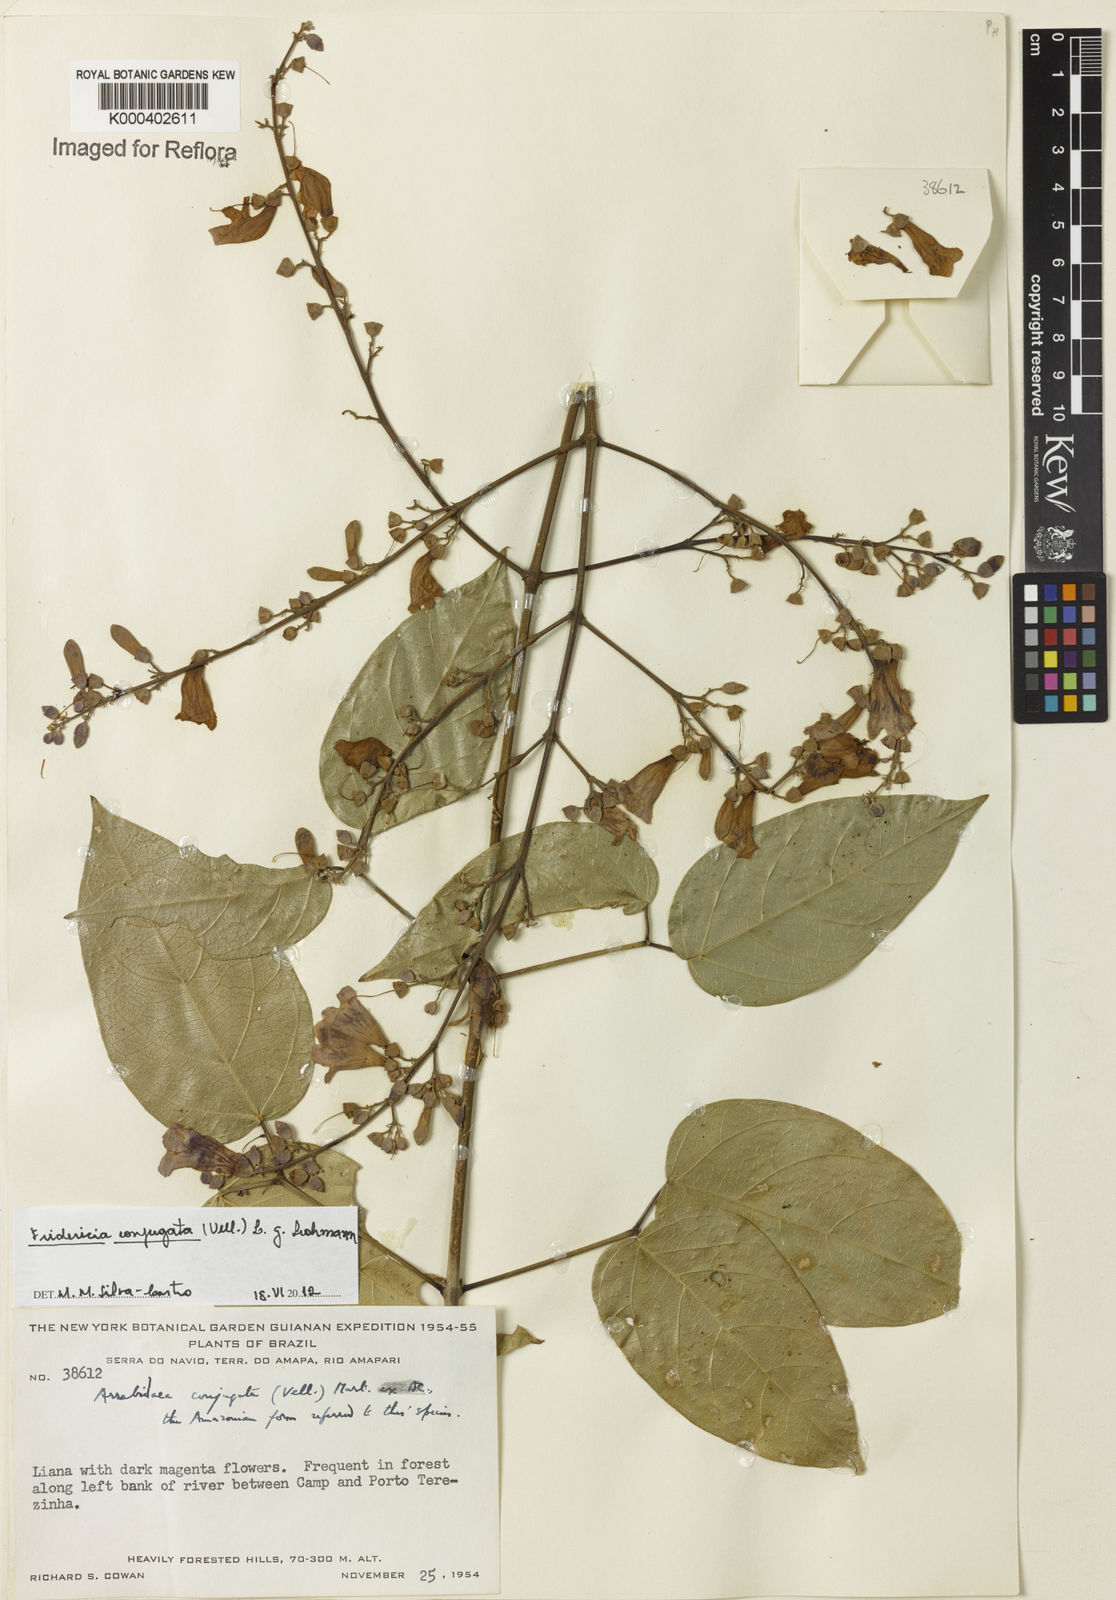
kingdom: Plantae
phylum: Tracheophyta
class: Magnoliopsida
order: Lamiales
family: Bignoniaceae
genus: Fridericia
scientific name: Fridericia conjugata
